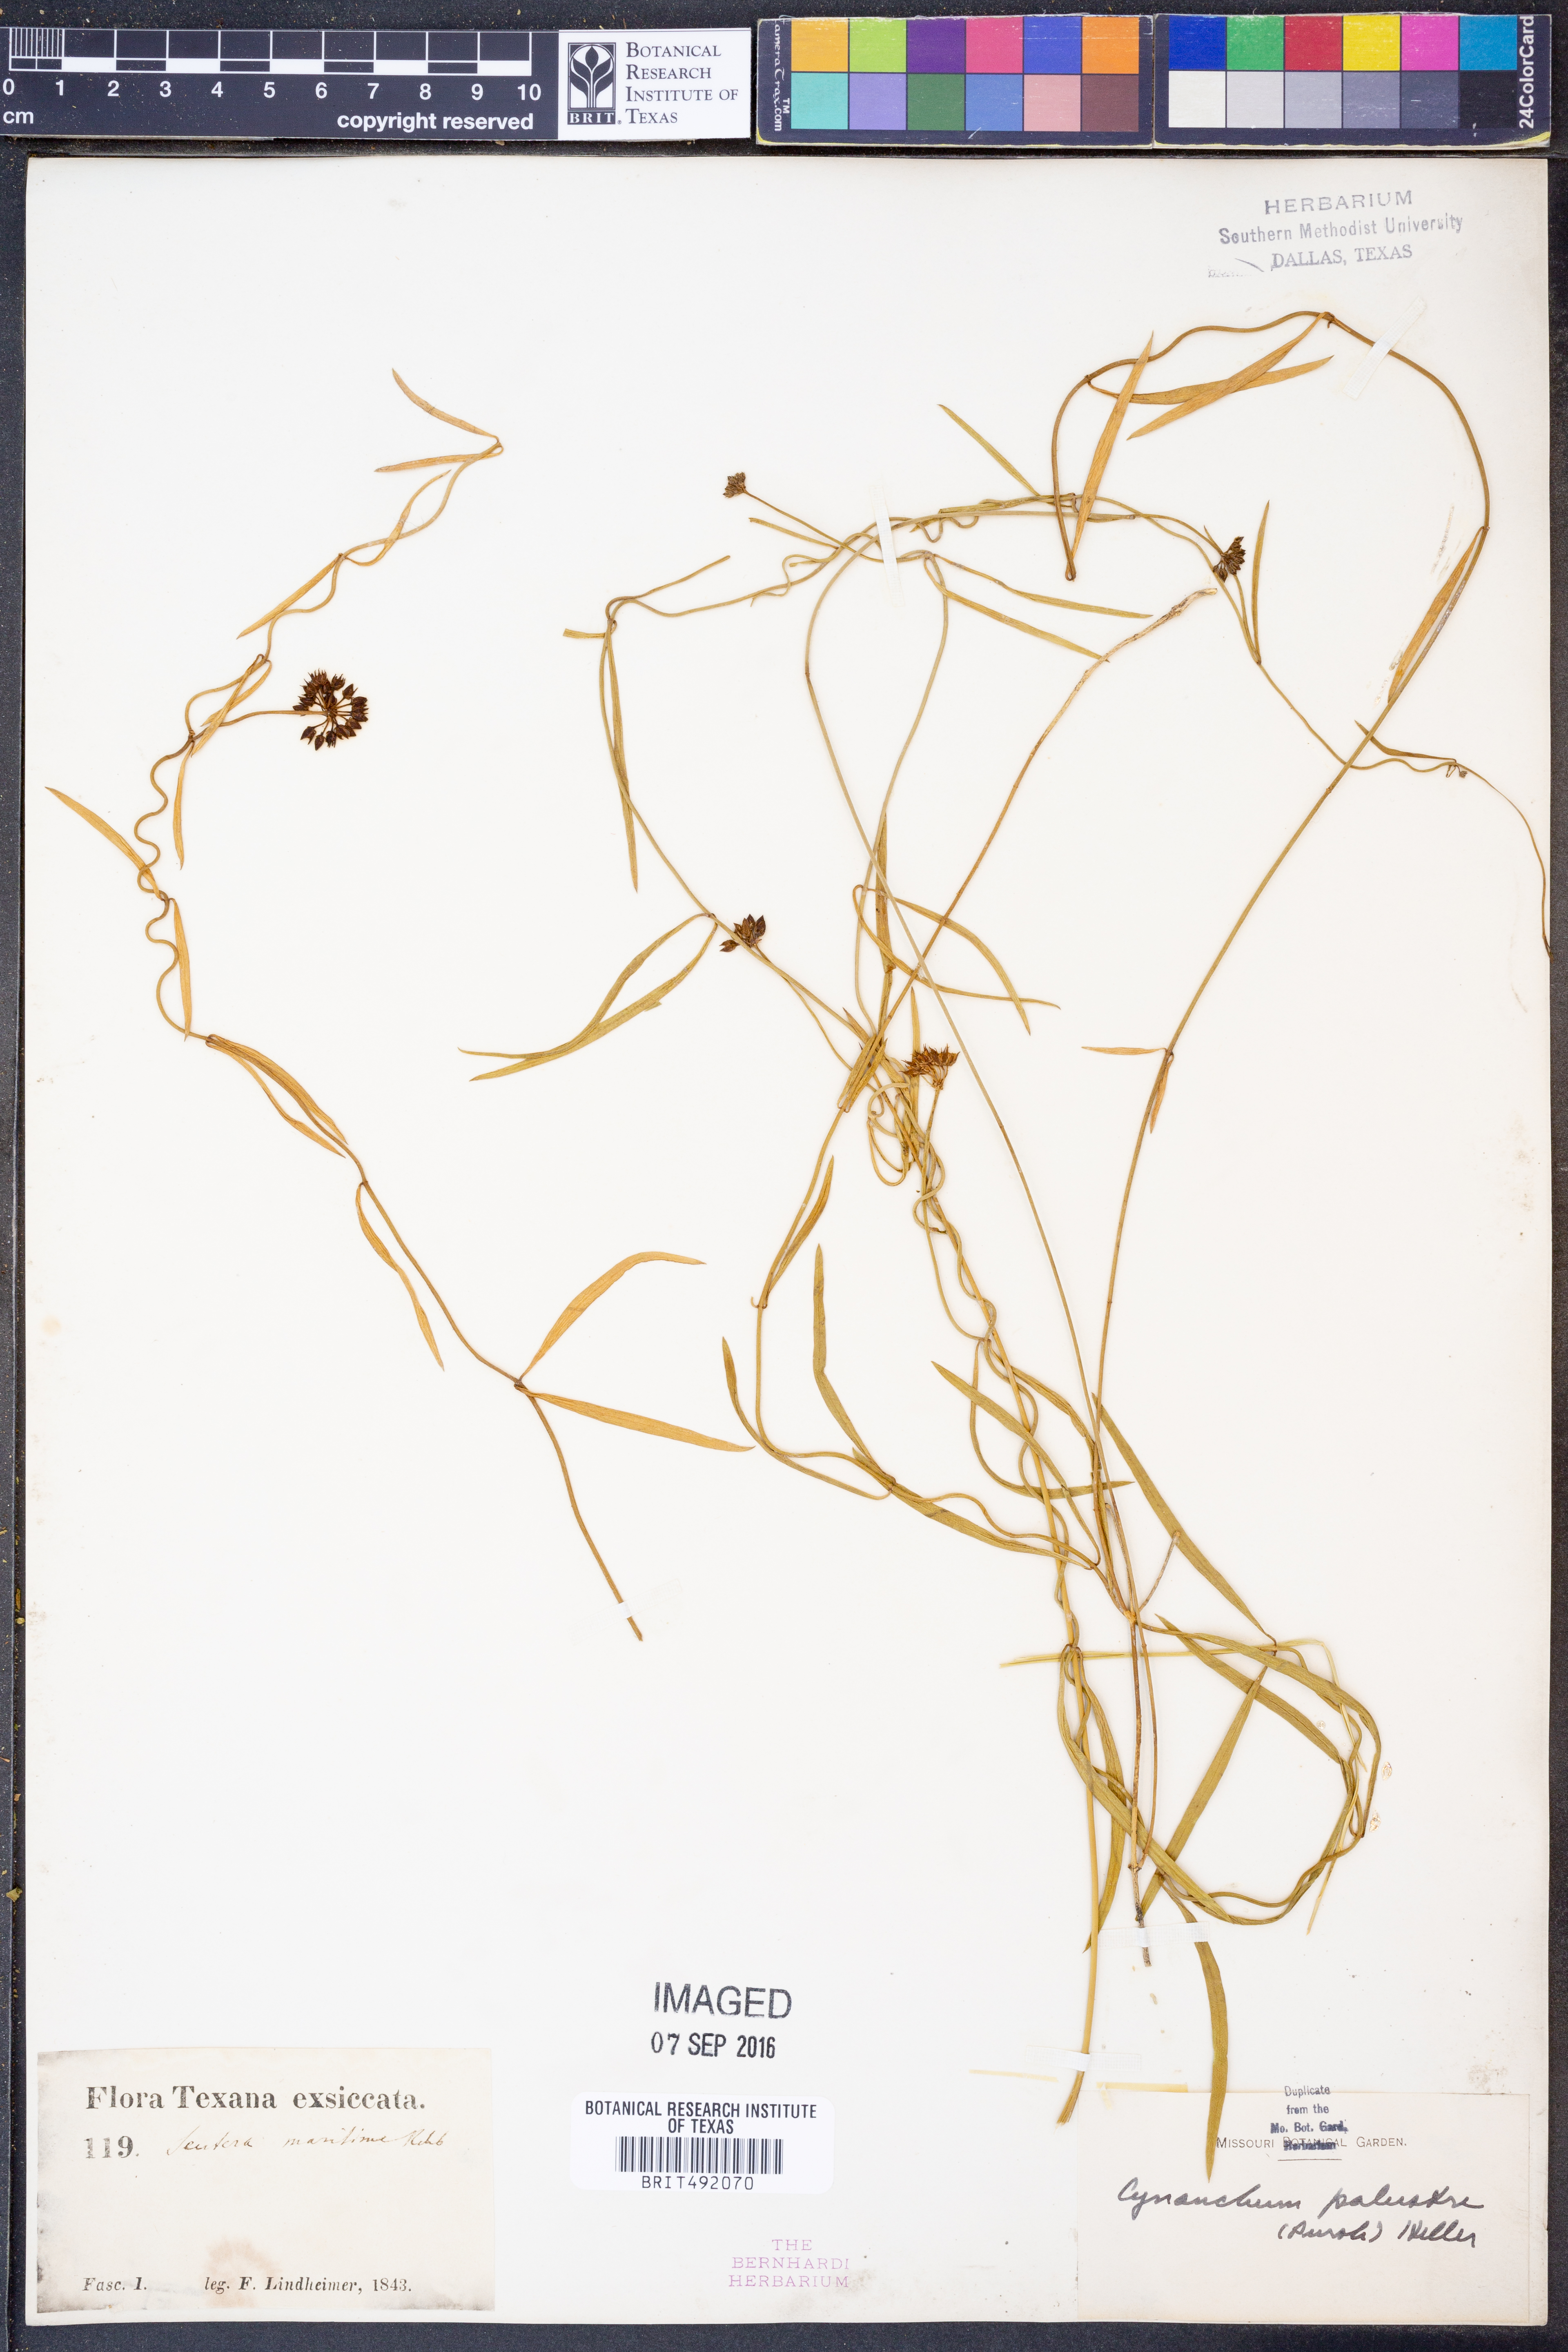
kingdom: Plantae
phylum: Tracheophyta
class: Magnoliopsida
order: Gentianales
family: Apocynaceae
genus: Pattalias
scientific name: Pattalias palustris
